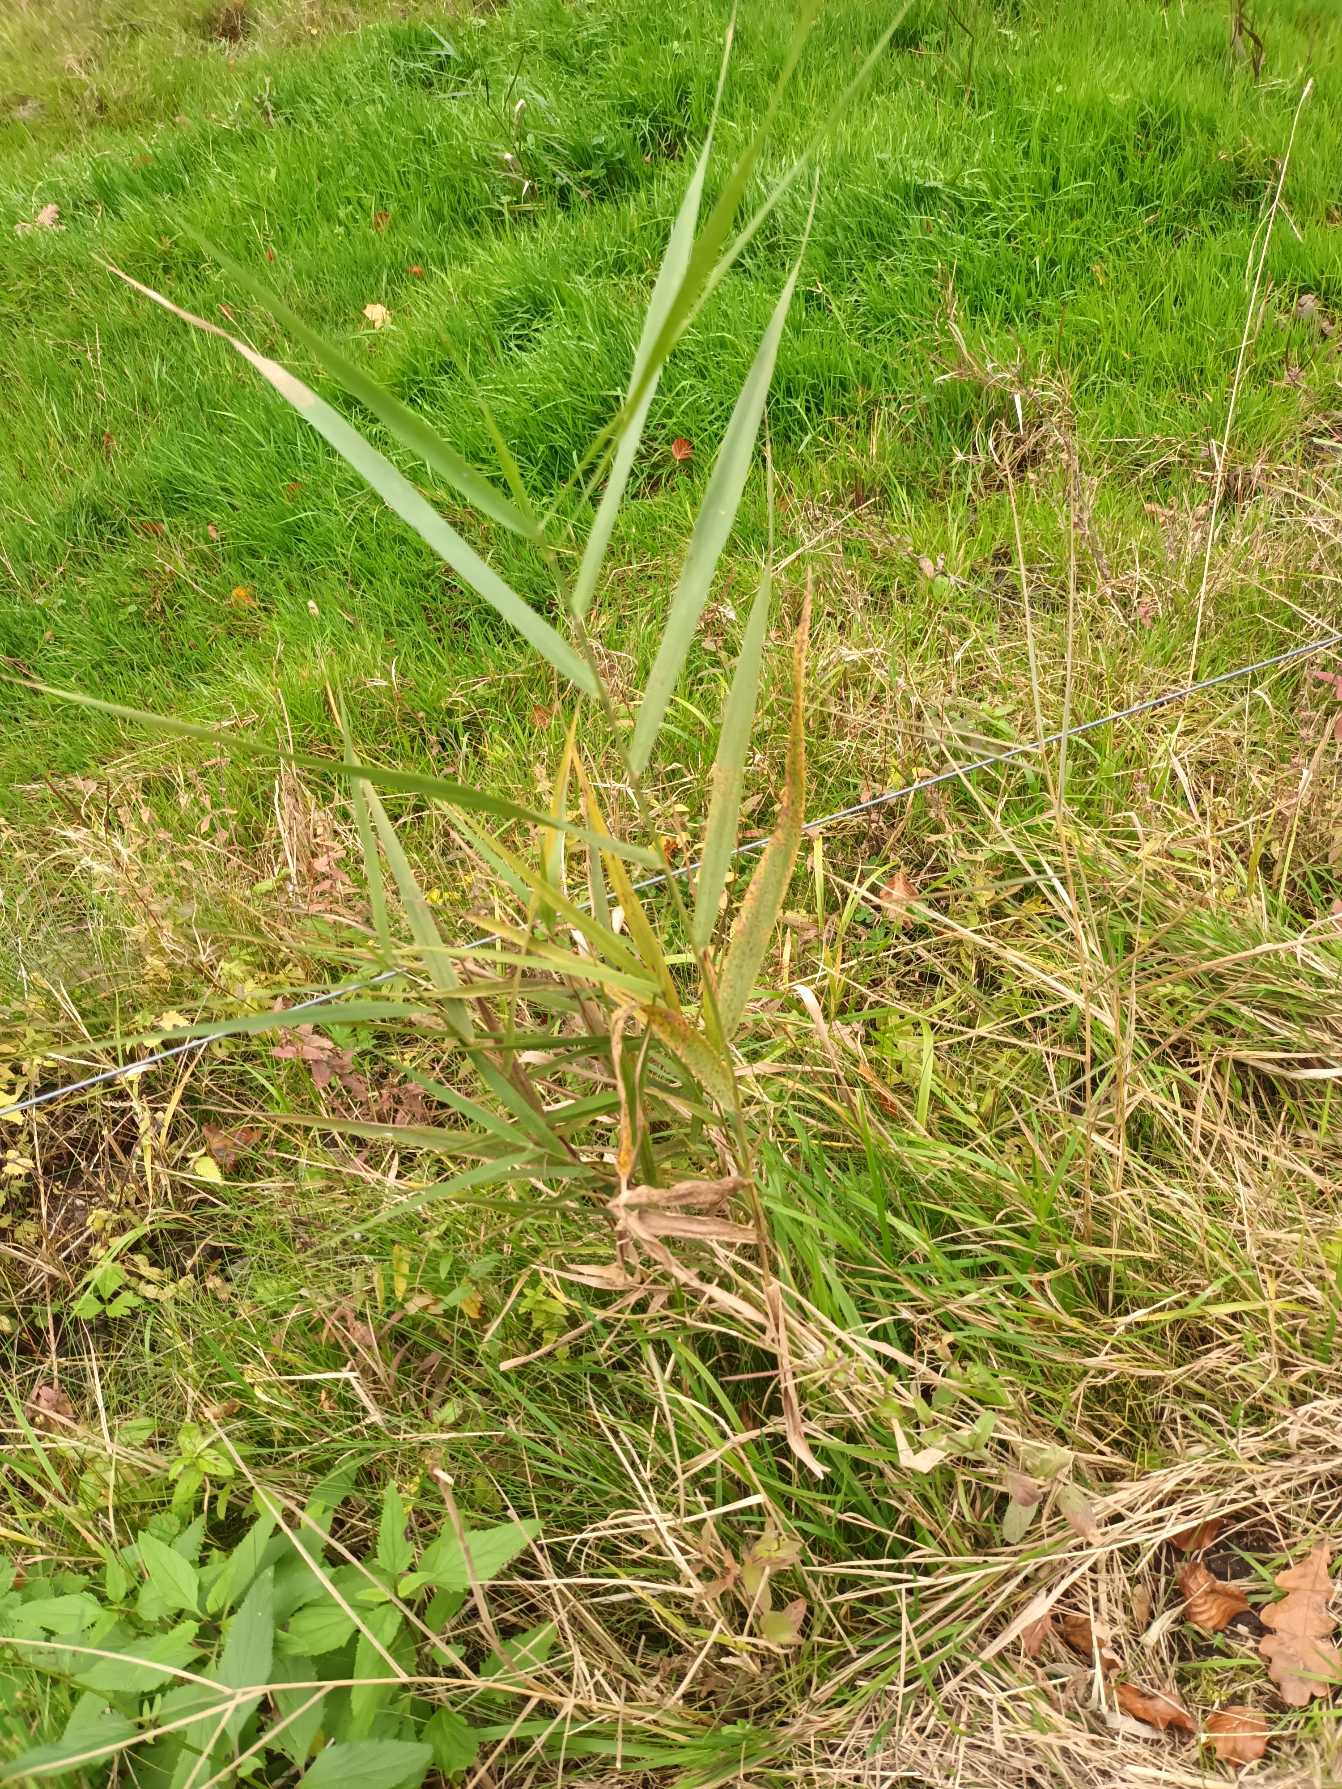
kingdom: Plantae
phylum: Tracheophyta
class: Liliopsida
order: Poales
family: Poaceae
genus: Phragmites
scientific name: Phragmites australis
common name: Tagrør
